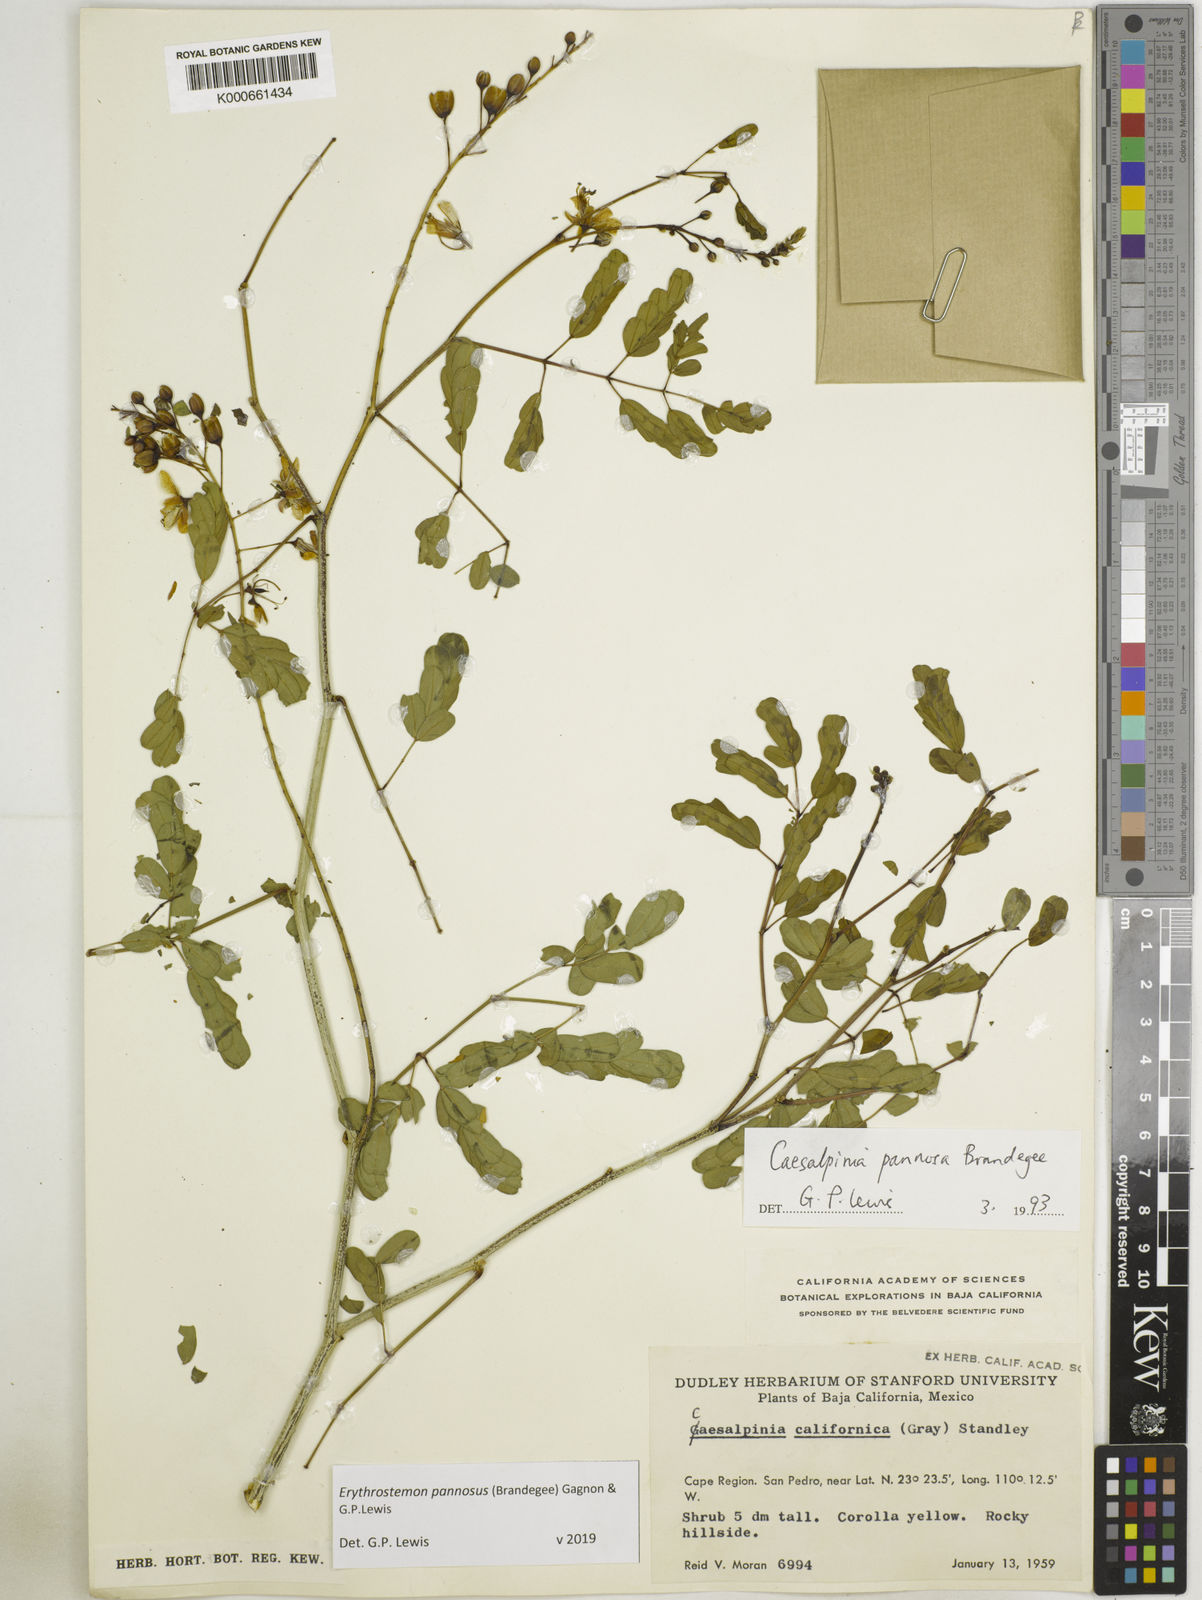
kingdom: Plantae
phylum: Tracheophyta
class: Magnoliopsida
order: Fabales
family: Fabaceae
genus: Erythrostemon
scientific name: Erythrostemon pannosus
